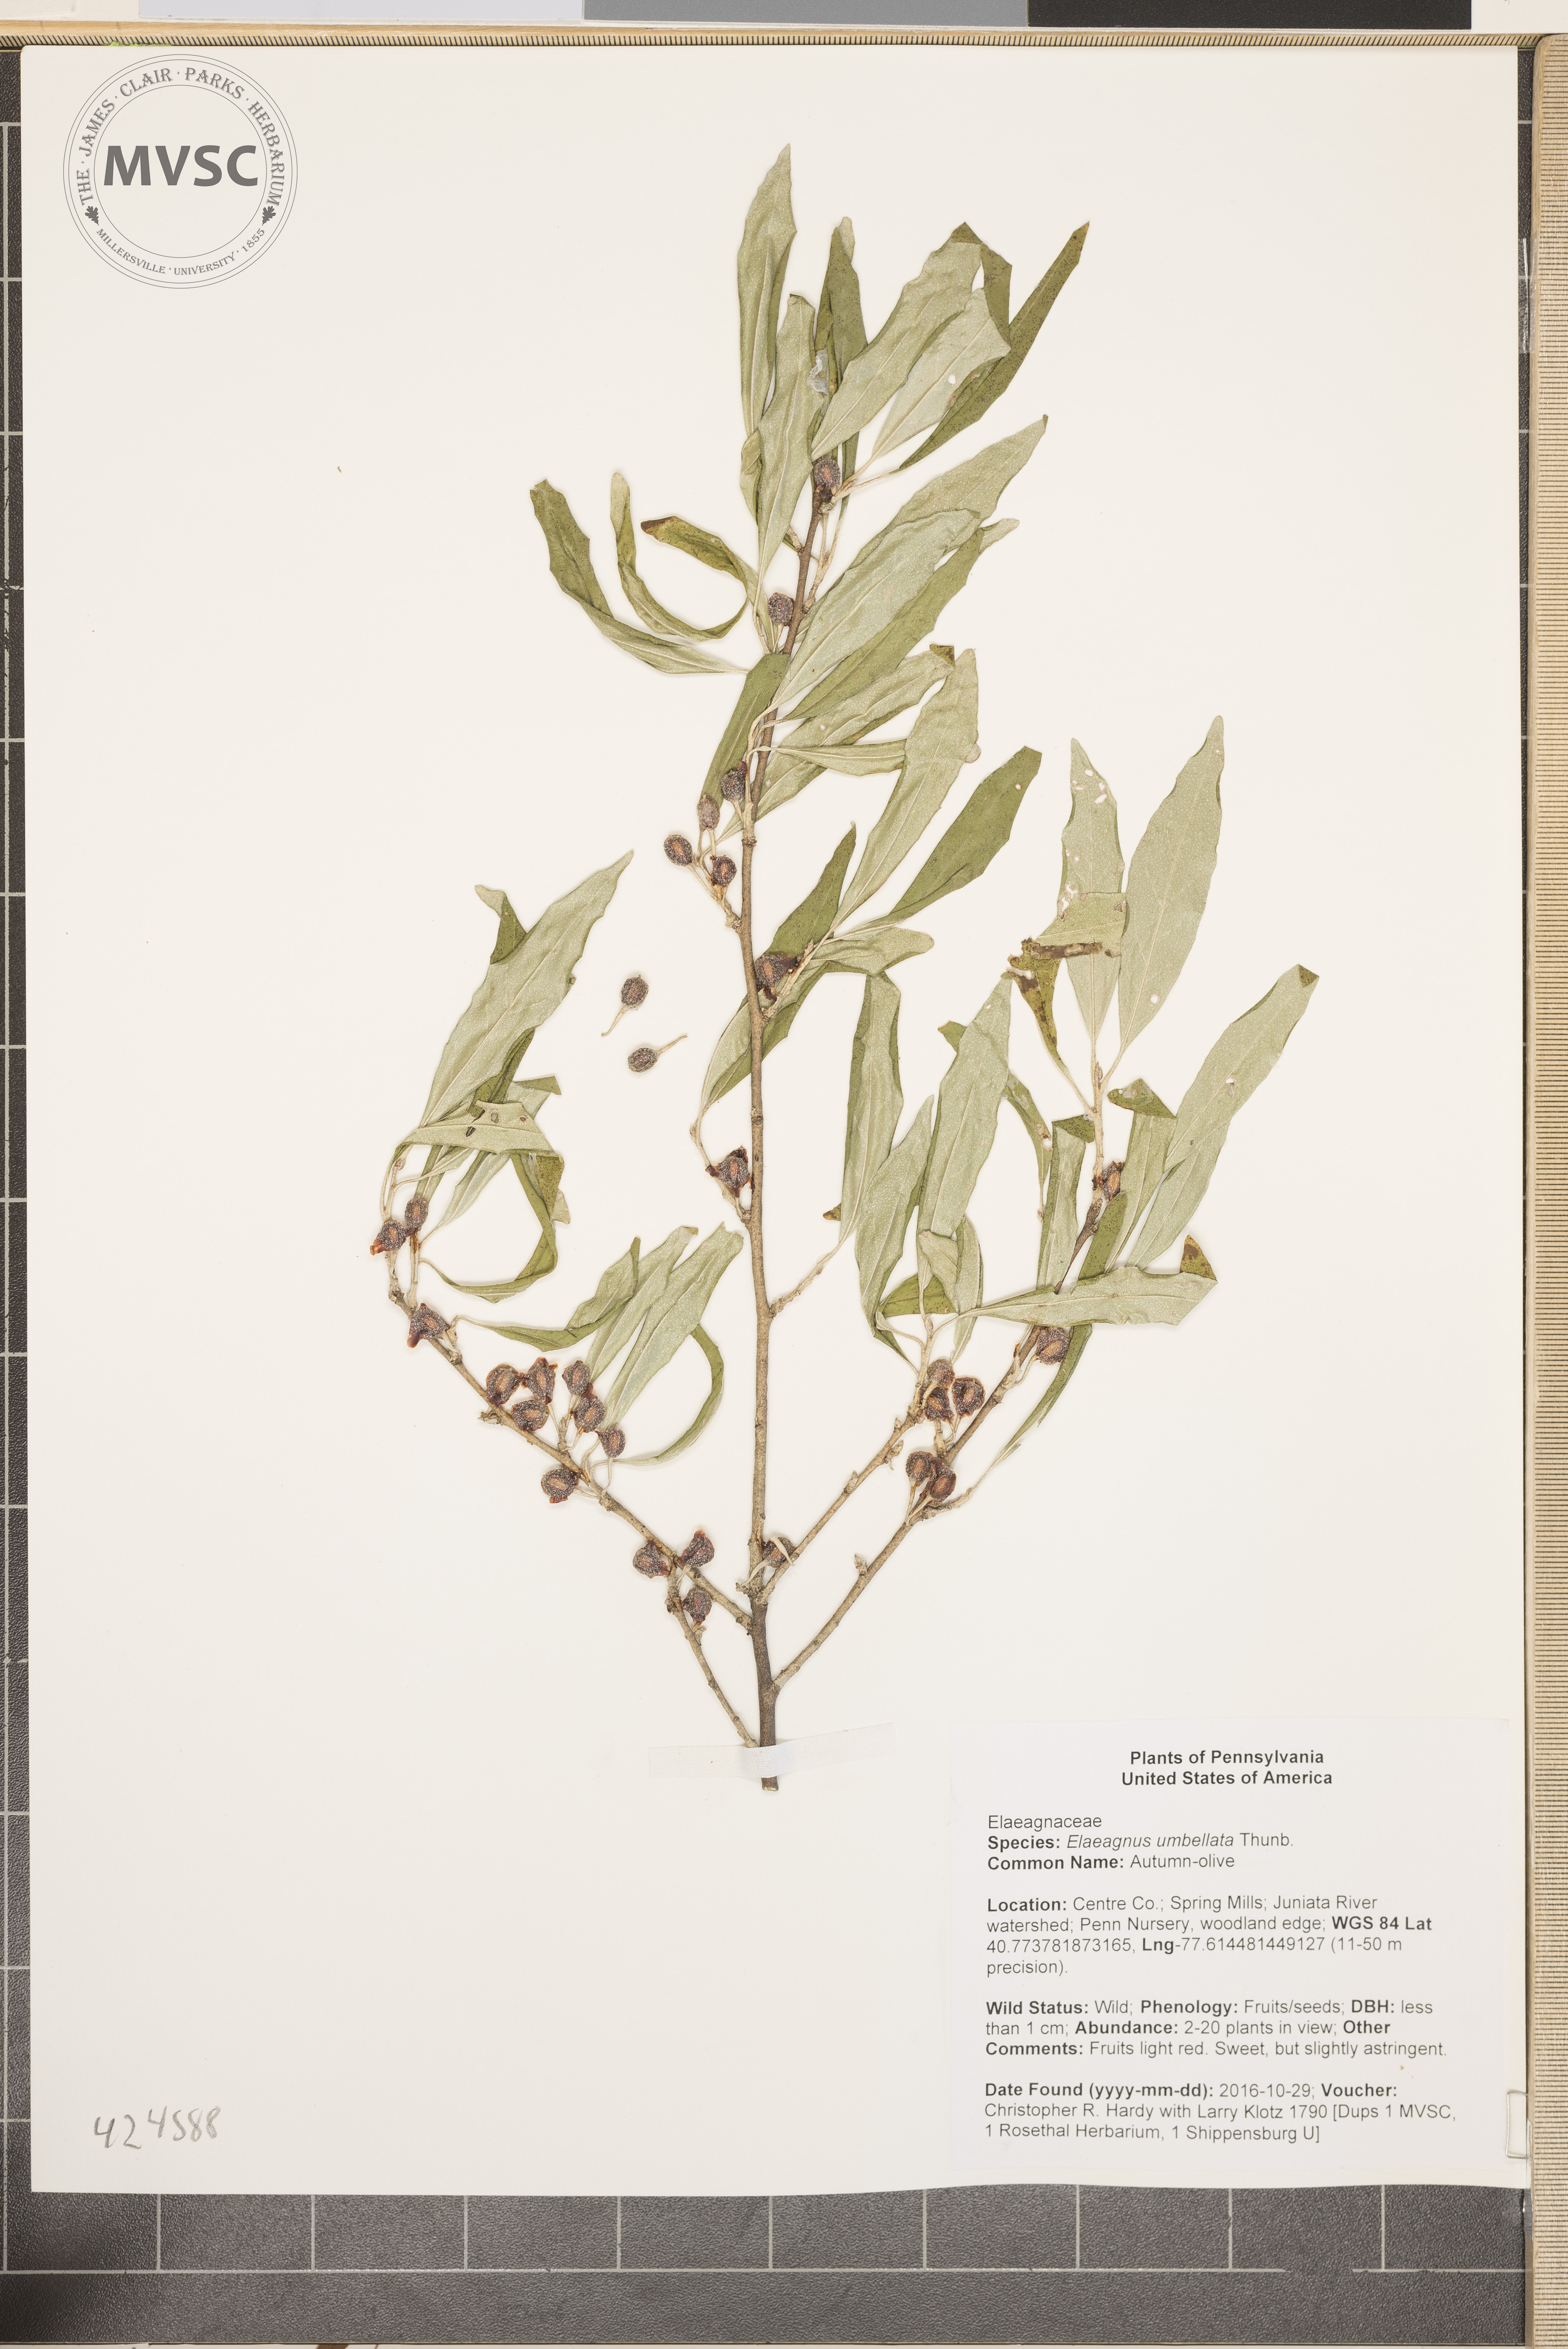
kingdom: Plantae
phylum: Tracheophyta
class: Magnoliopsida
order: Rosales
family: Elaeagnaceae
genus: Elaeagnus
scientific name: Elaeagnus umbellata
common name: Autumn-olive
